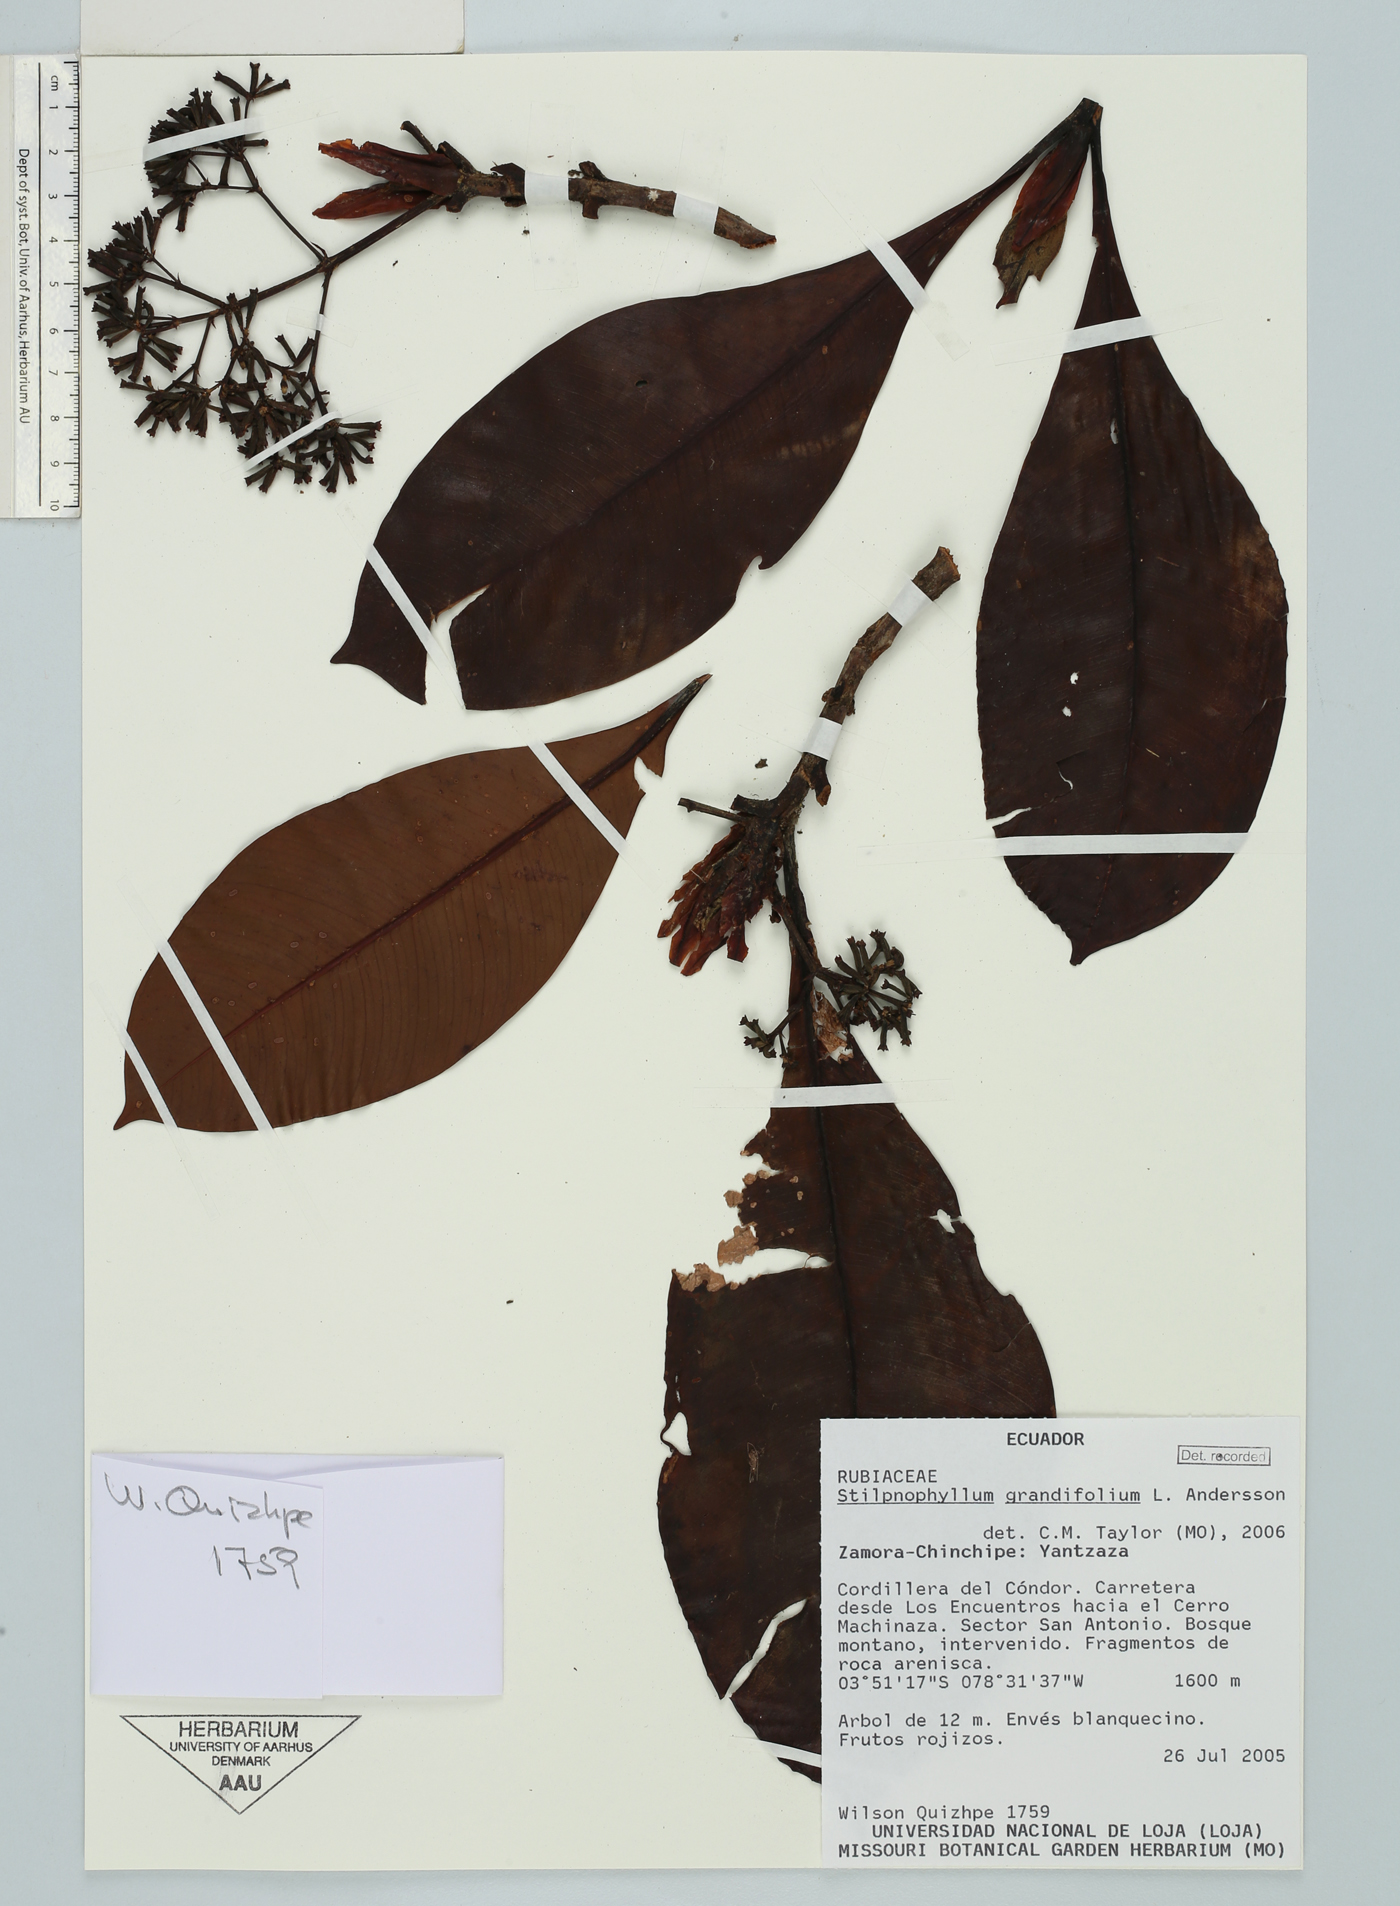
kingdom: Plantae
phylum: Tracheophyta
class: Magnoliopsida
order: Gentianales
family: Rubiaceae
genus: Stilpnophyllum
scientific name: Stilpnophyllum grandifolium
